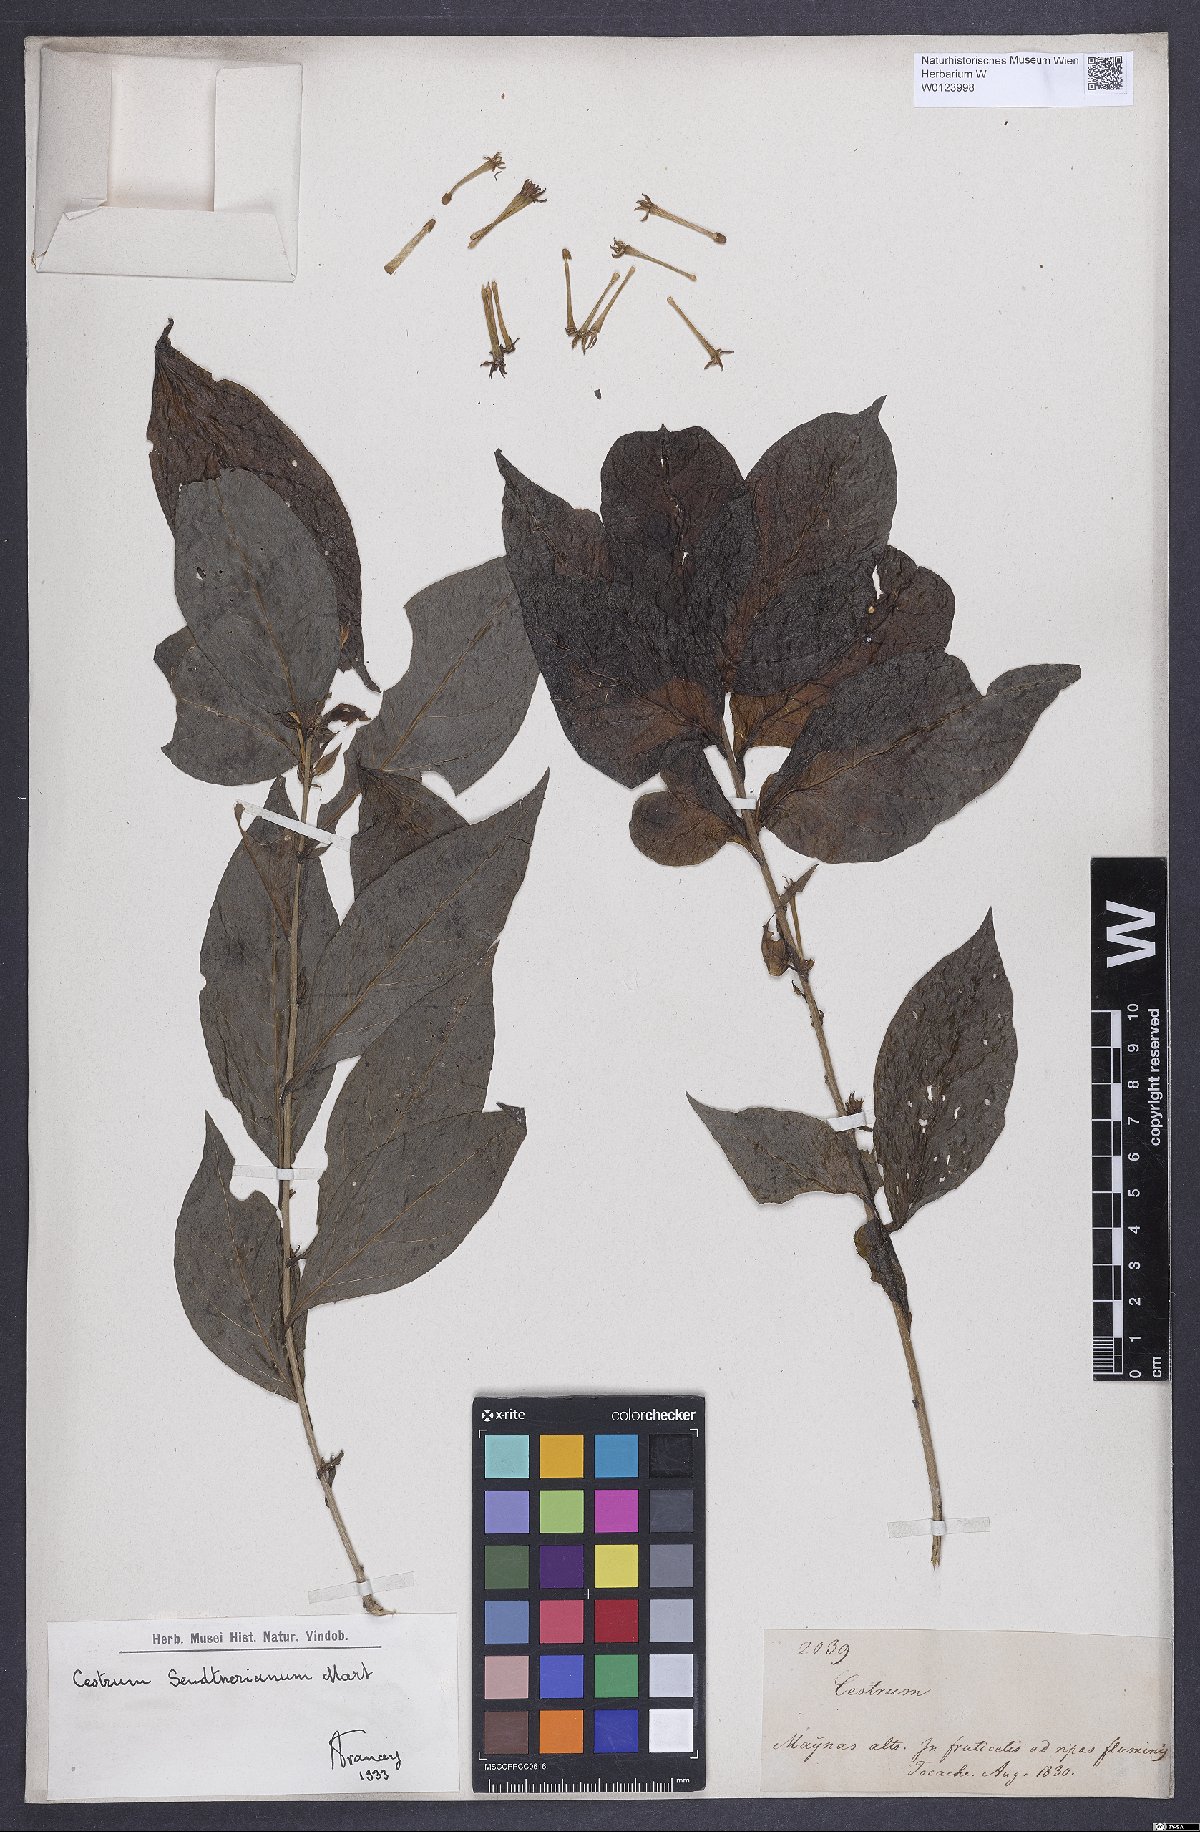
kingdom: Plantae
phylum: Tracheophyta
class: Magnoliopsida
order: Solanales
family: Solanaceae
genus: Cestrum
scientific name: Cestrum mariquitense
